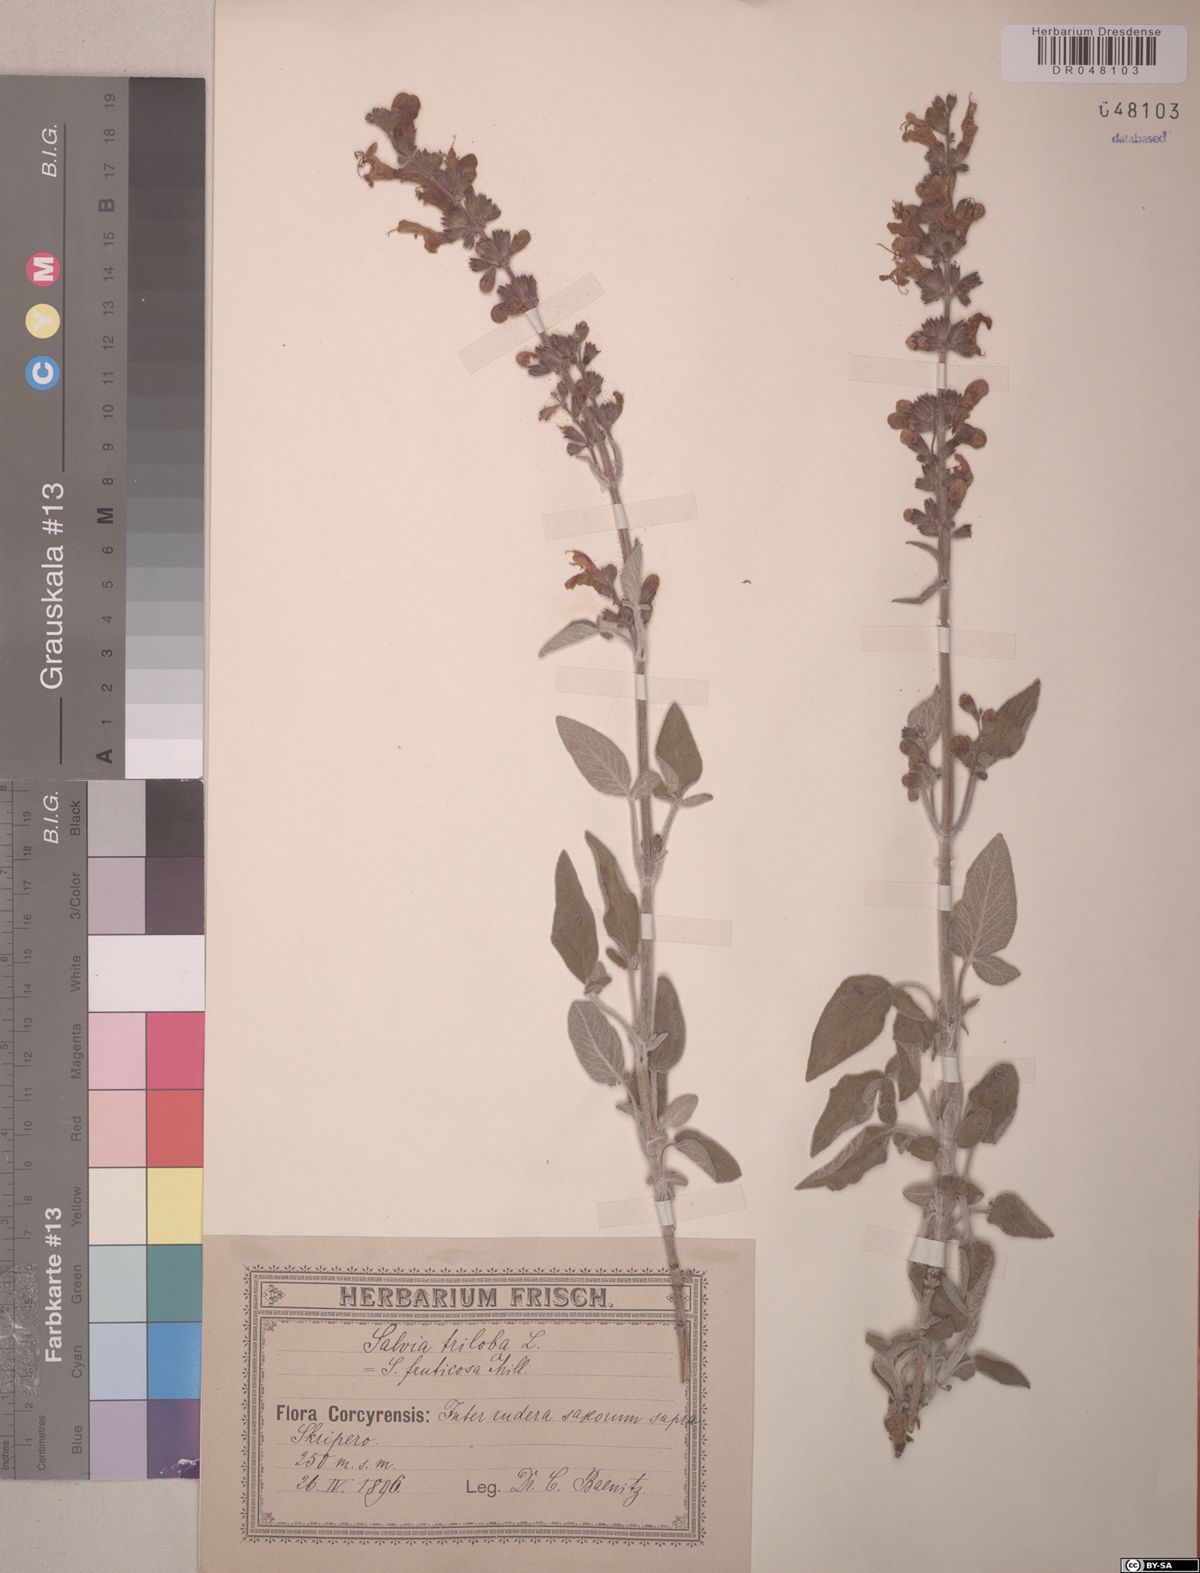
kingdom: Plantae
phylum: Tracheophyta
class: Magnoliopsida
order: Lamiales
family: Lamiaceae
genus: Salvia
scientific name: Salvia fruticosa
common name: Greek sage
